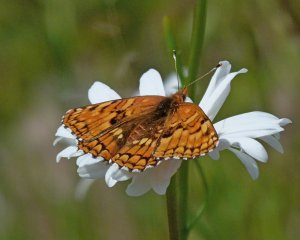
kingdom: Animalia
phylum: Arthropoda
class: Insecta
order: Lepidoptera
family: Nymphalidae
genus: Chlosyne
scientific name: Chlosyne palla
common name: Northern Checkerspot
